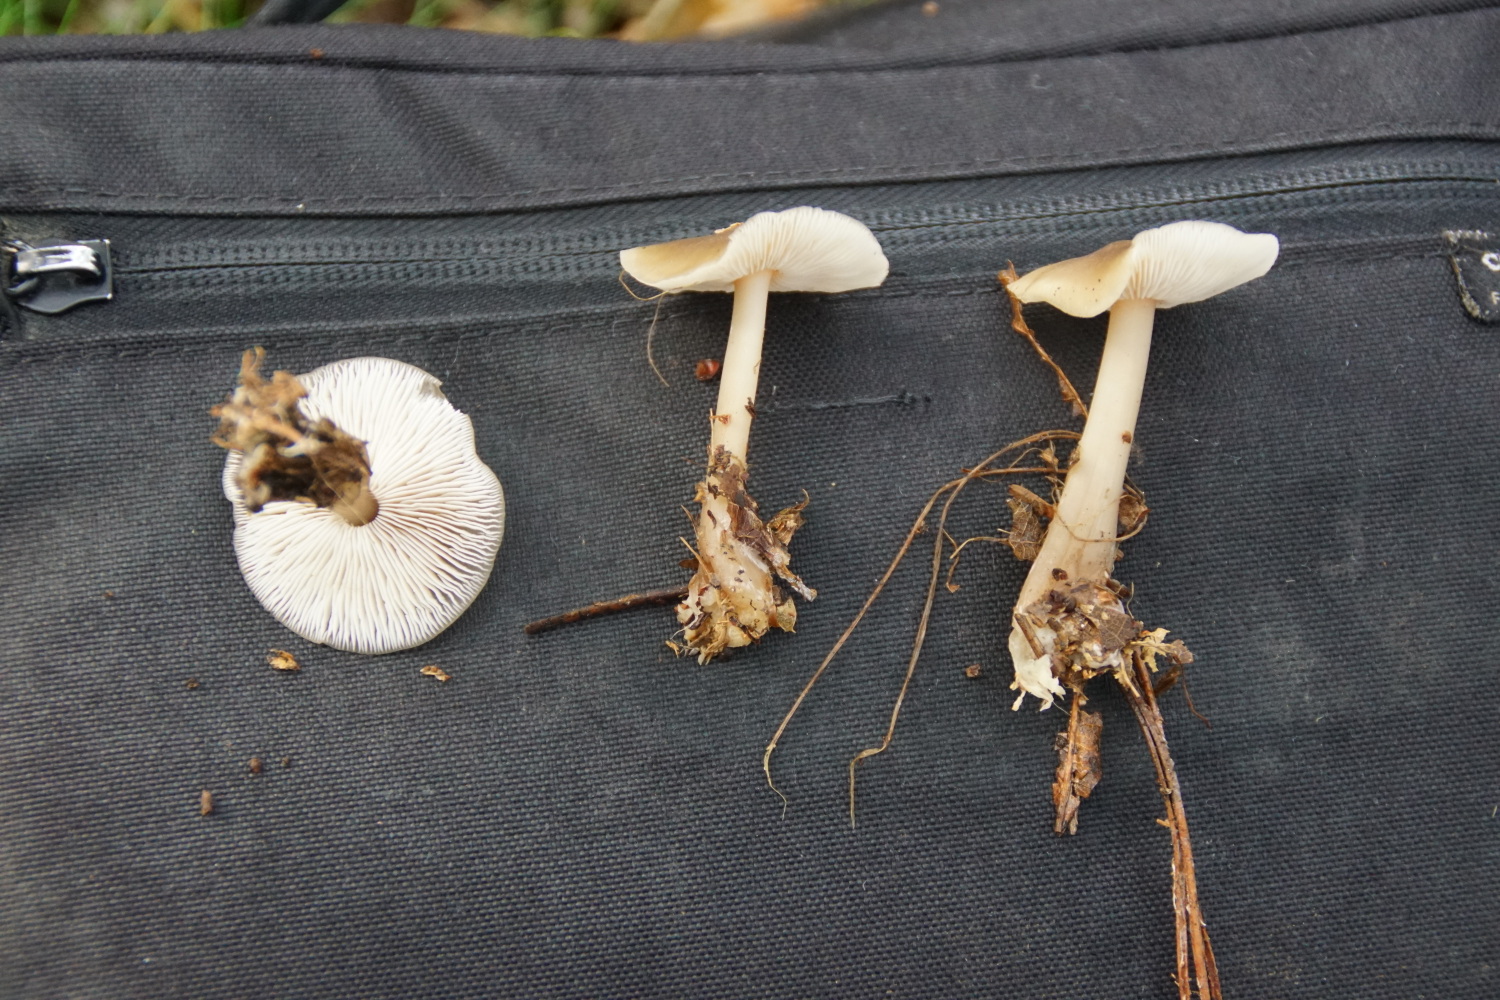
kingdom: Fungi
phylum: Basidiomycota
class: Agaricomycetes
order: Agaricales
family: Omphalotaceae
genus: Rhodocollybia
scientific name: Rhodocollybia asema
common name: horngrå fladhat
